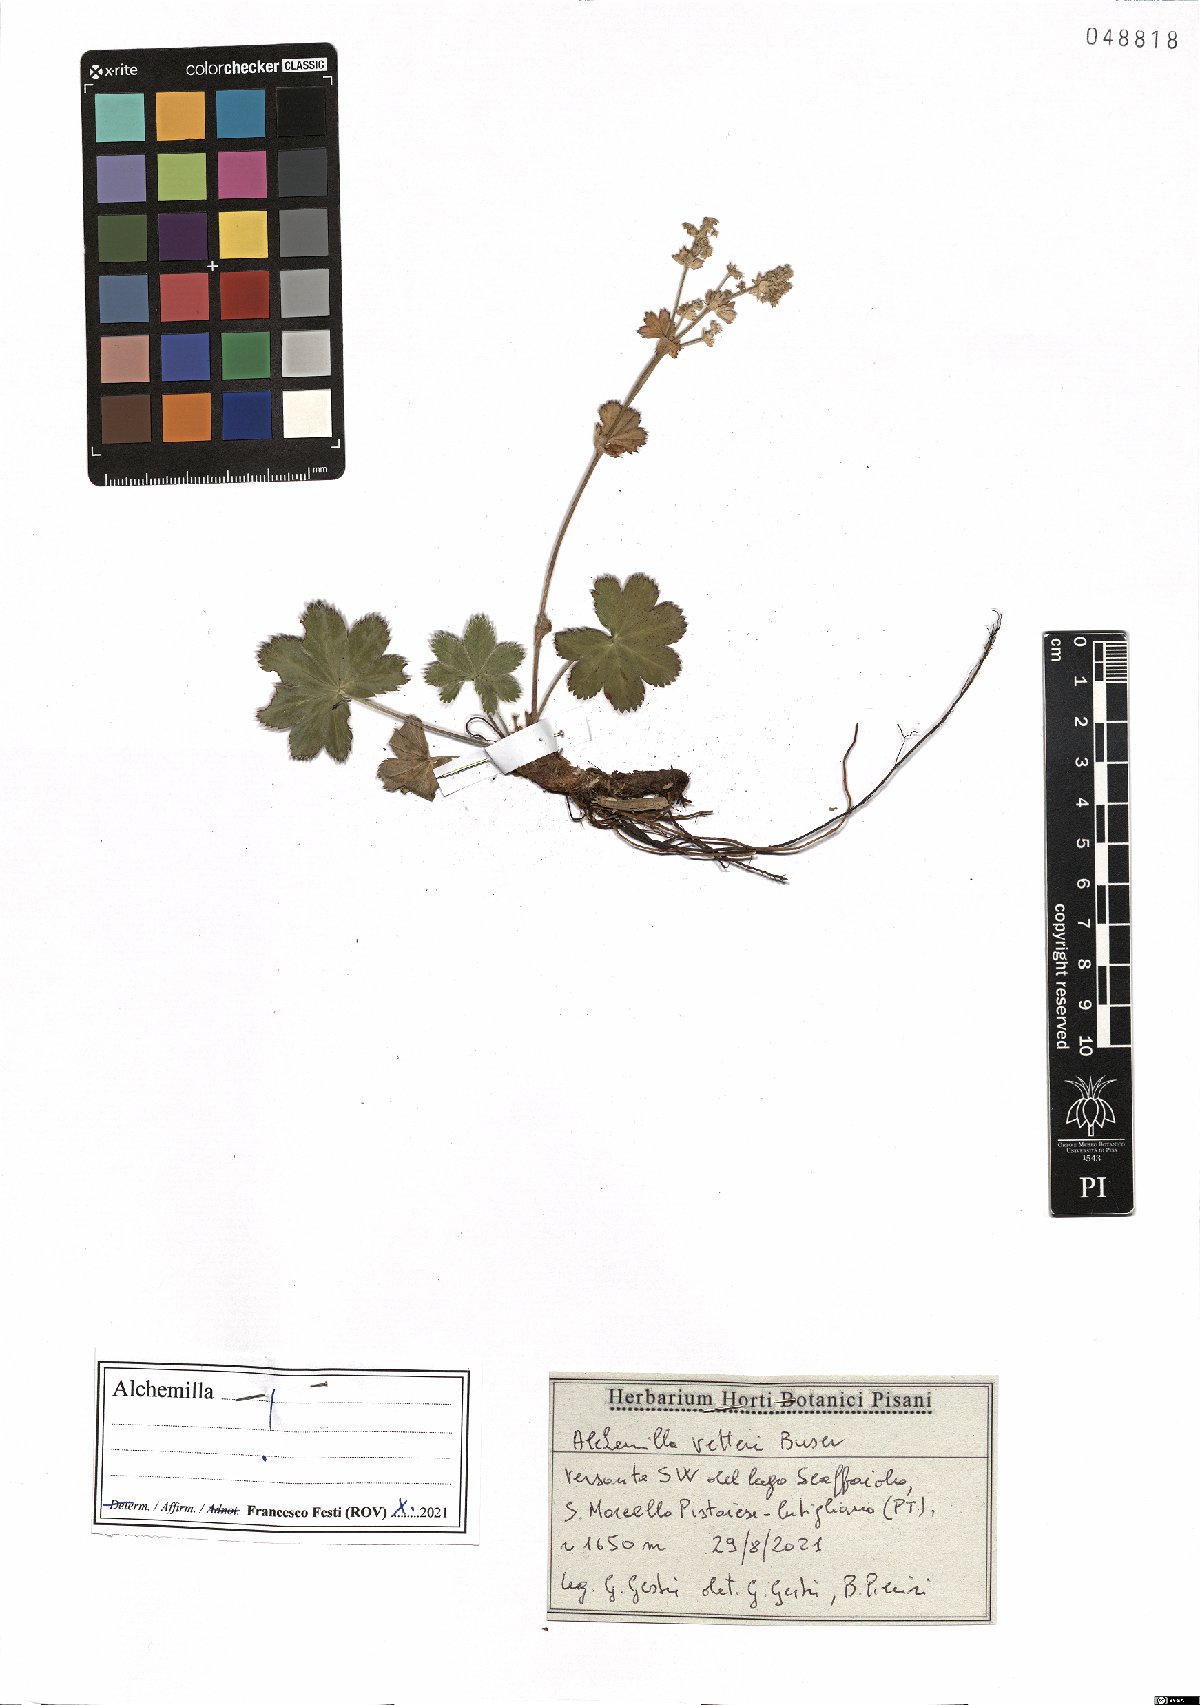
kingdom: Plantae
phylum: Tracheophyta
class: Magnoliopsida
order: Rosales
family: Rosaceae
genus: Alchemilla
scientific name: Alchemilla vetteri
